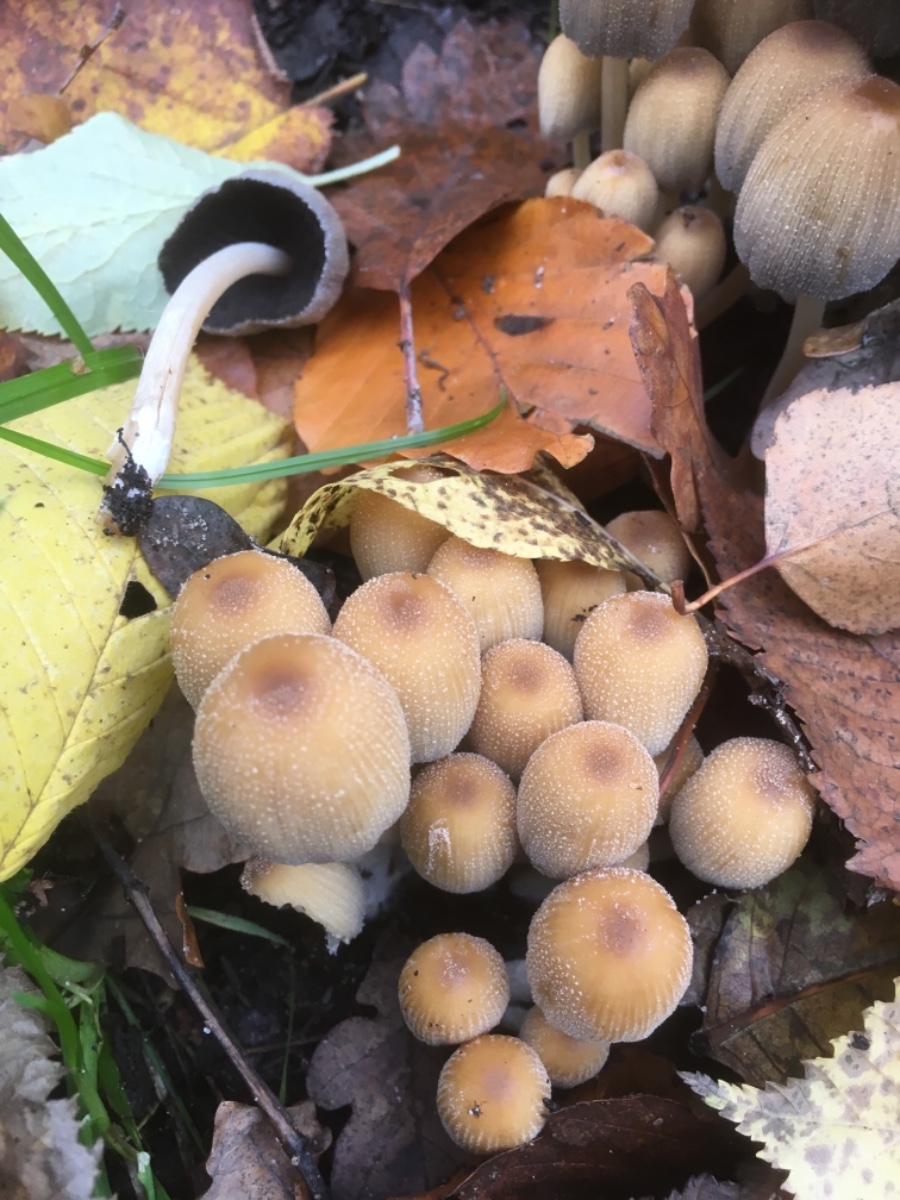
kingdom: Fungi
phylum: Basidiomycota
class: Agaricomycetes
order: Agaricales
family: Psathyrellaceae
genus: Coprinellus
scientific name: Coprinellus micaceus
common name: glimmer-blækhat
